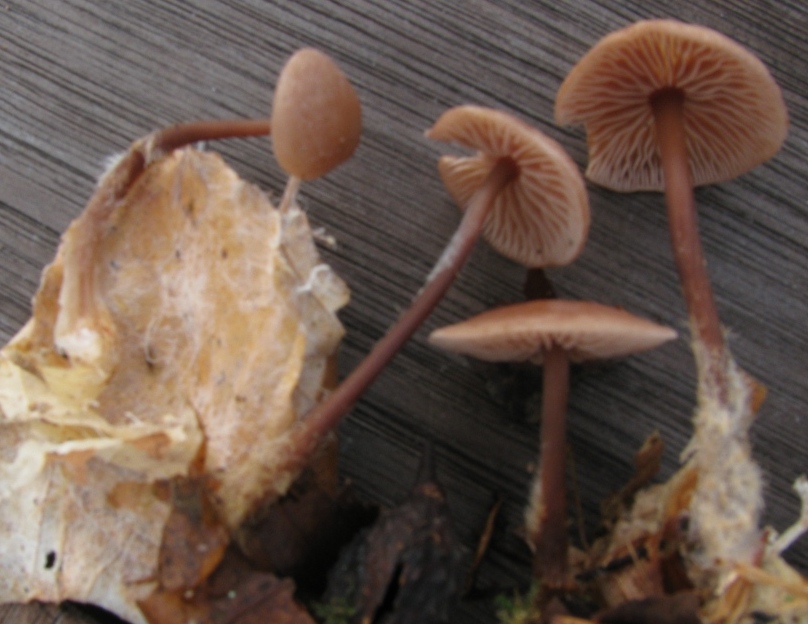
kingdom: Fungi
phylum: Basidiomycota
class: Agaricomycetes
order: Agaricales
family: Omphalotaceae
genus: Gymnopus
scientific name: Gymnopus fuscopurpureus
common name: purpurbrun fladhat
